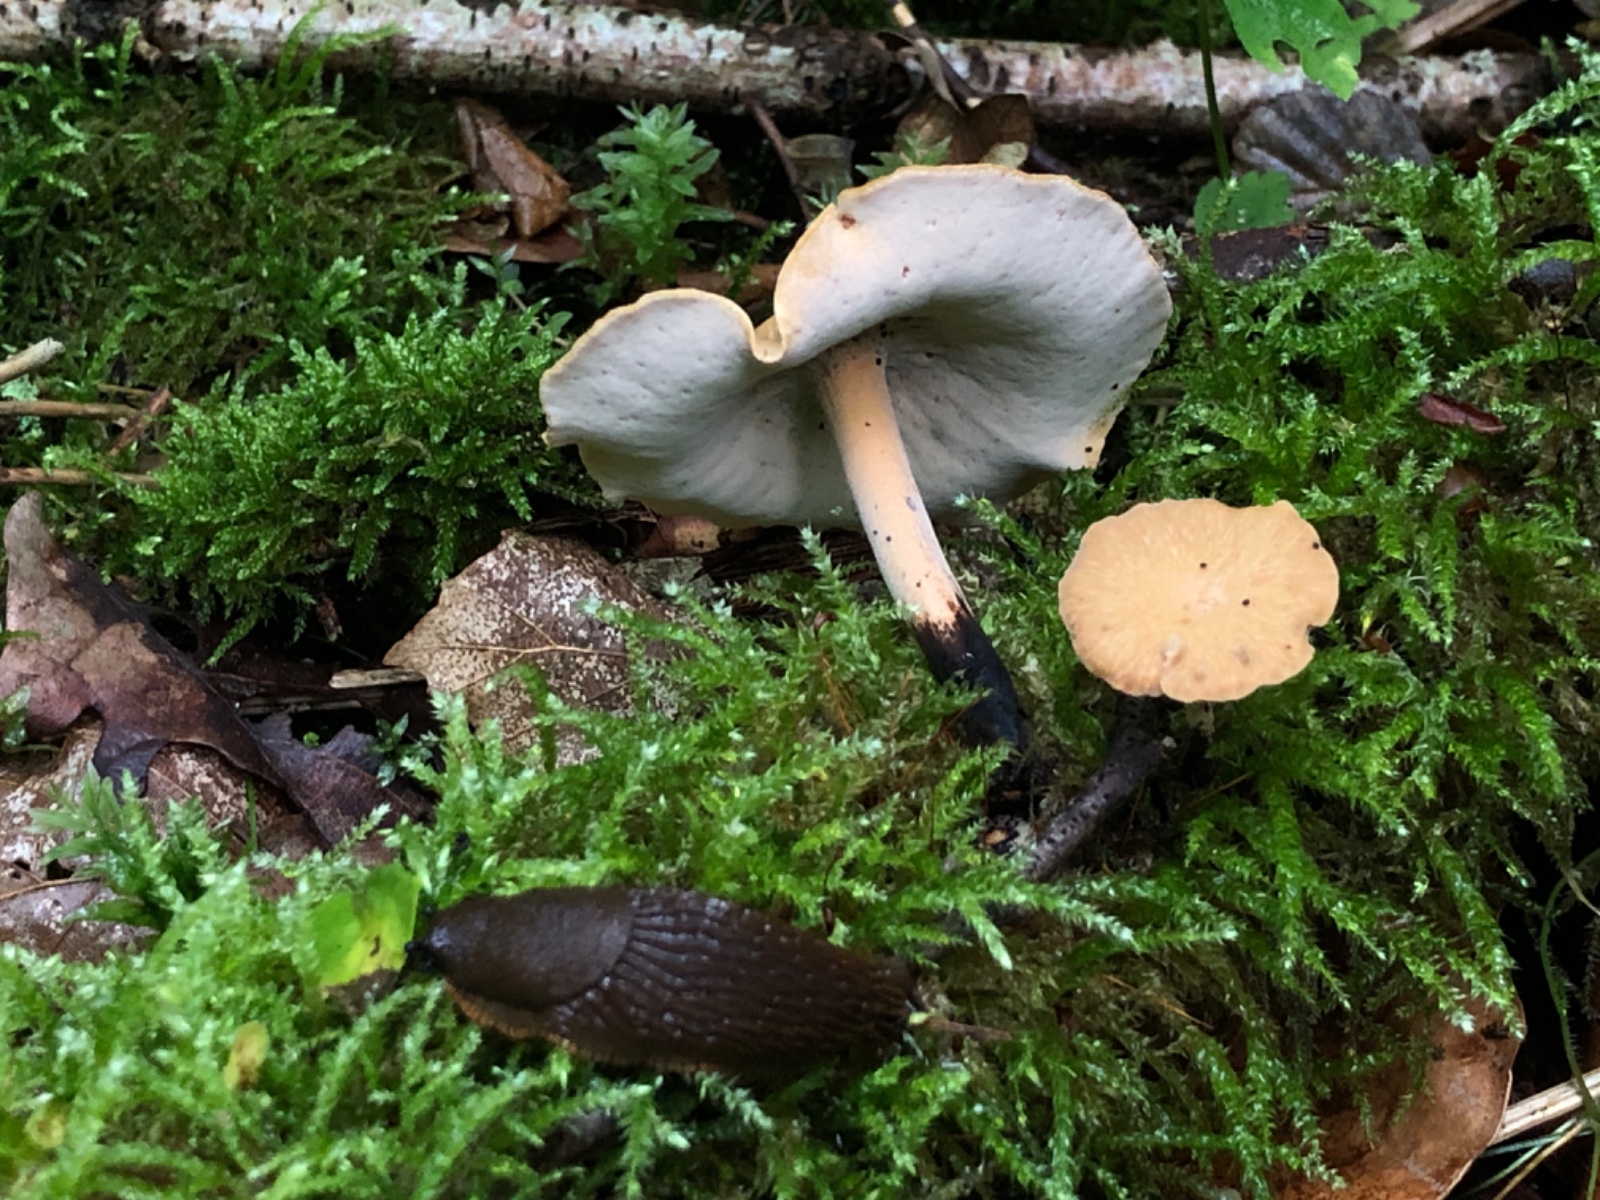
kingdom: Fungi
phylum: Basidiomycota
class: Agaricomycetes
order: Polyporales
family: Polyporaceae
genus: Cerioporus
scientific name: Cerioporus varius
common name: foranderlig stilkporesvamp
